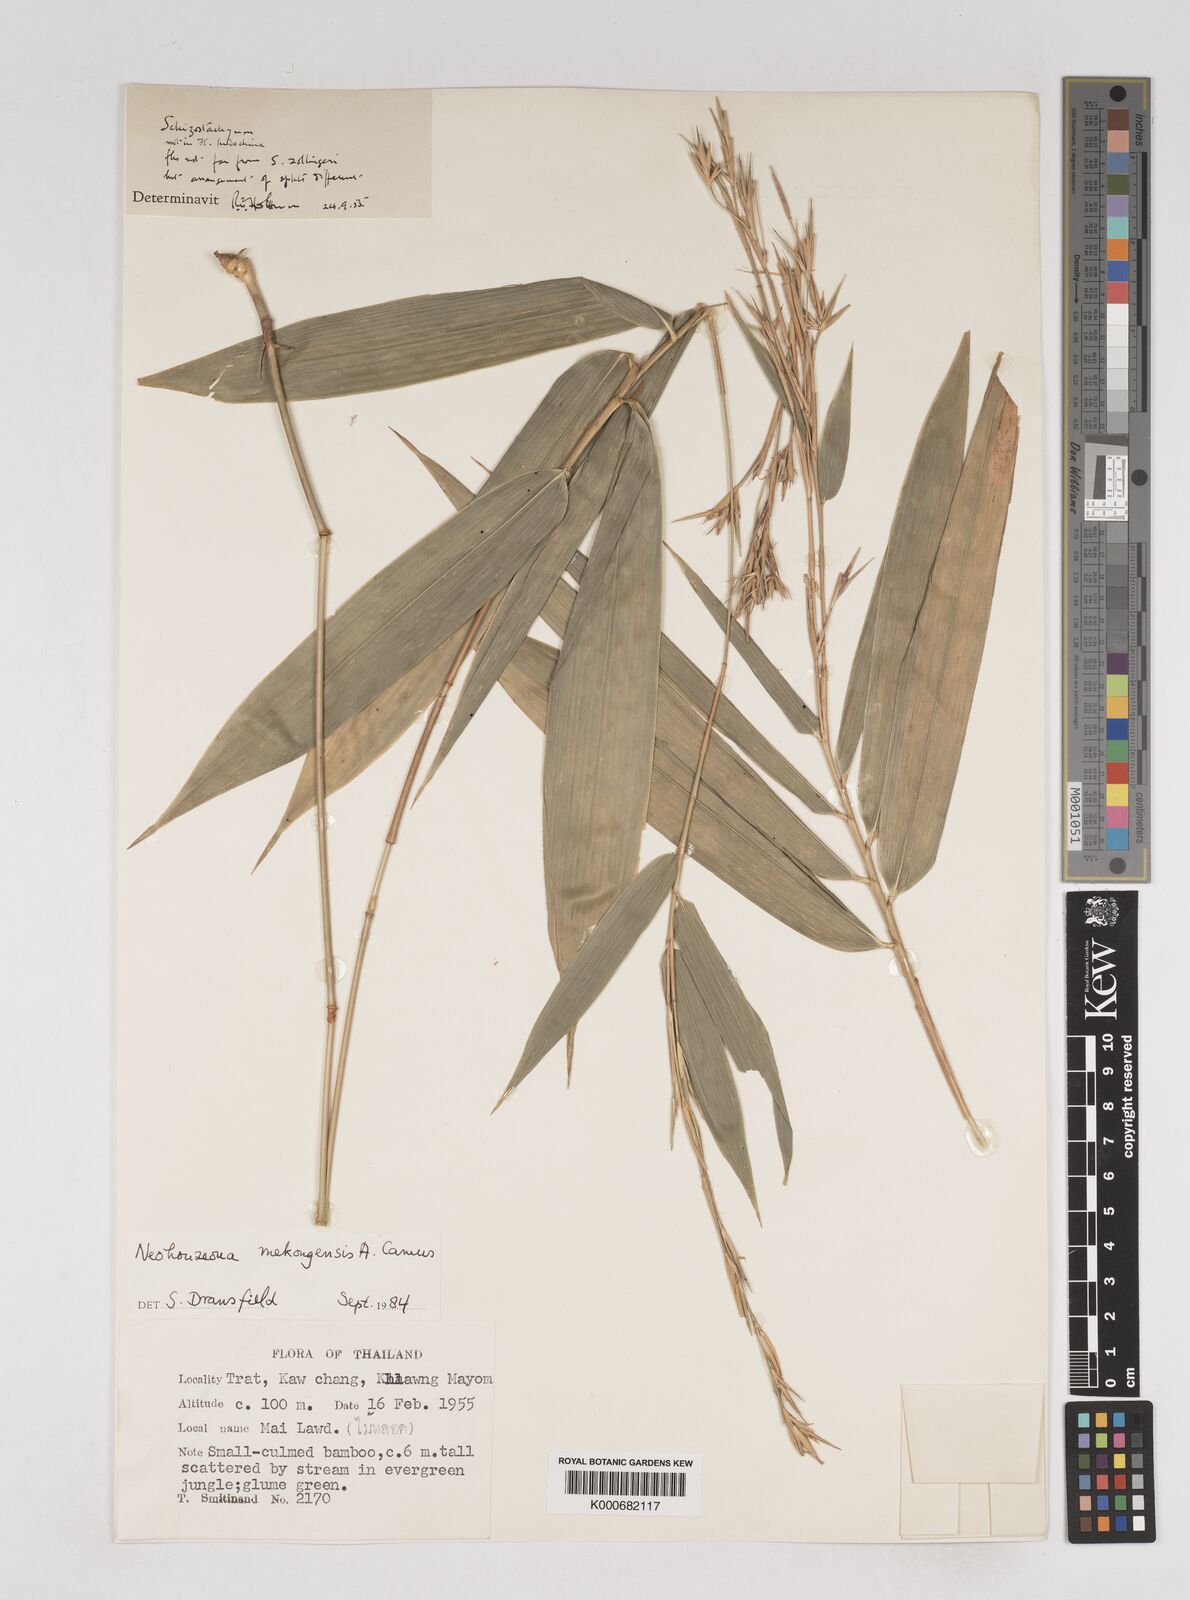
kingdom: Plantae
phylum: Tracheophyta
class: Liliopsida
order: Poales
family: Poaceae
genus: Schizostachyum
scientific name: Schizostachyum mekongensis
